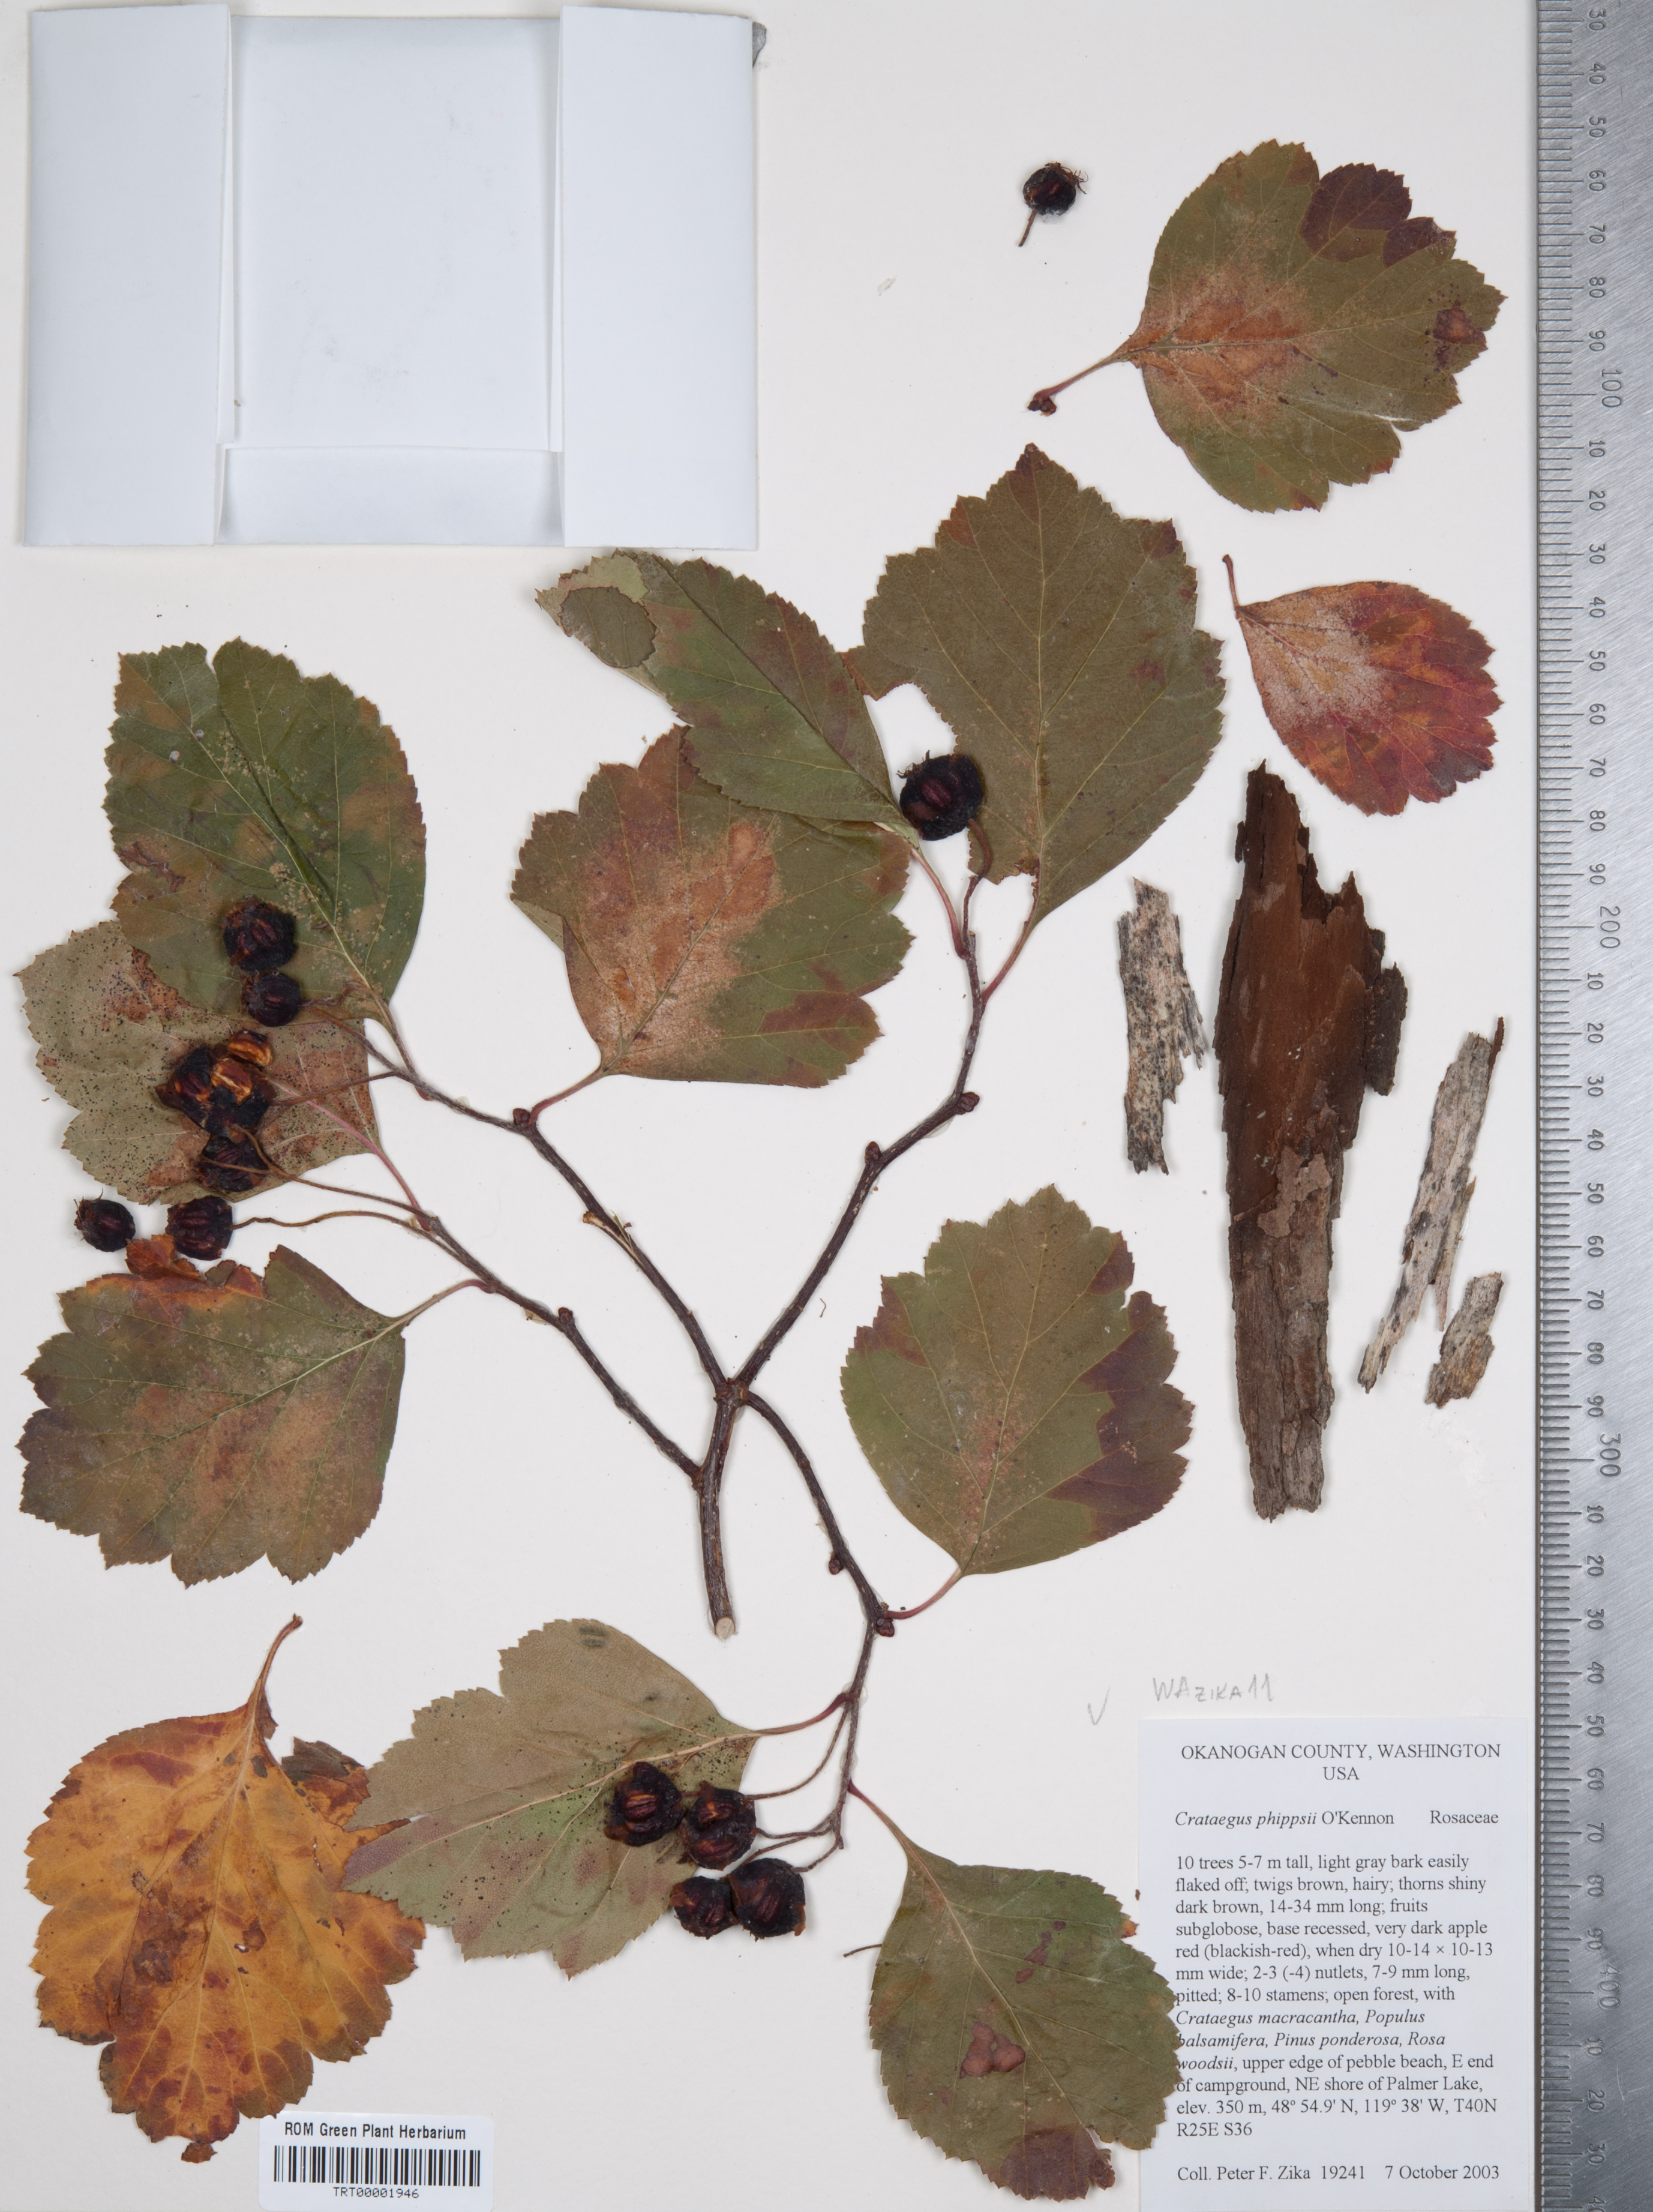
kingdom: Plantae
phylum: Tracheophyta
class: Magnoliopsida
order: Rosales
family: Rosaceae
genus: Crataegus
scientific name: Crataegus phippsii
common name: Phipps' hawthorn
